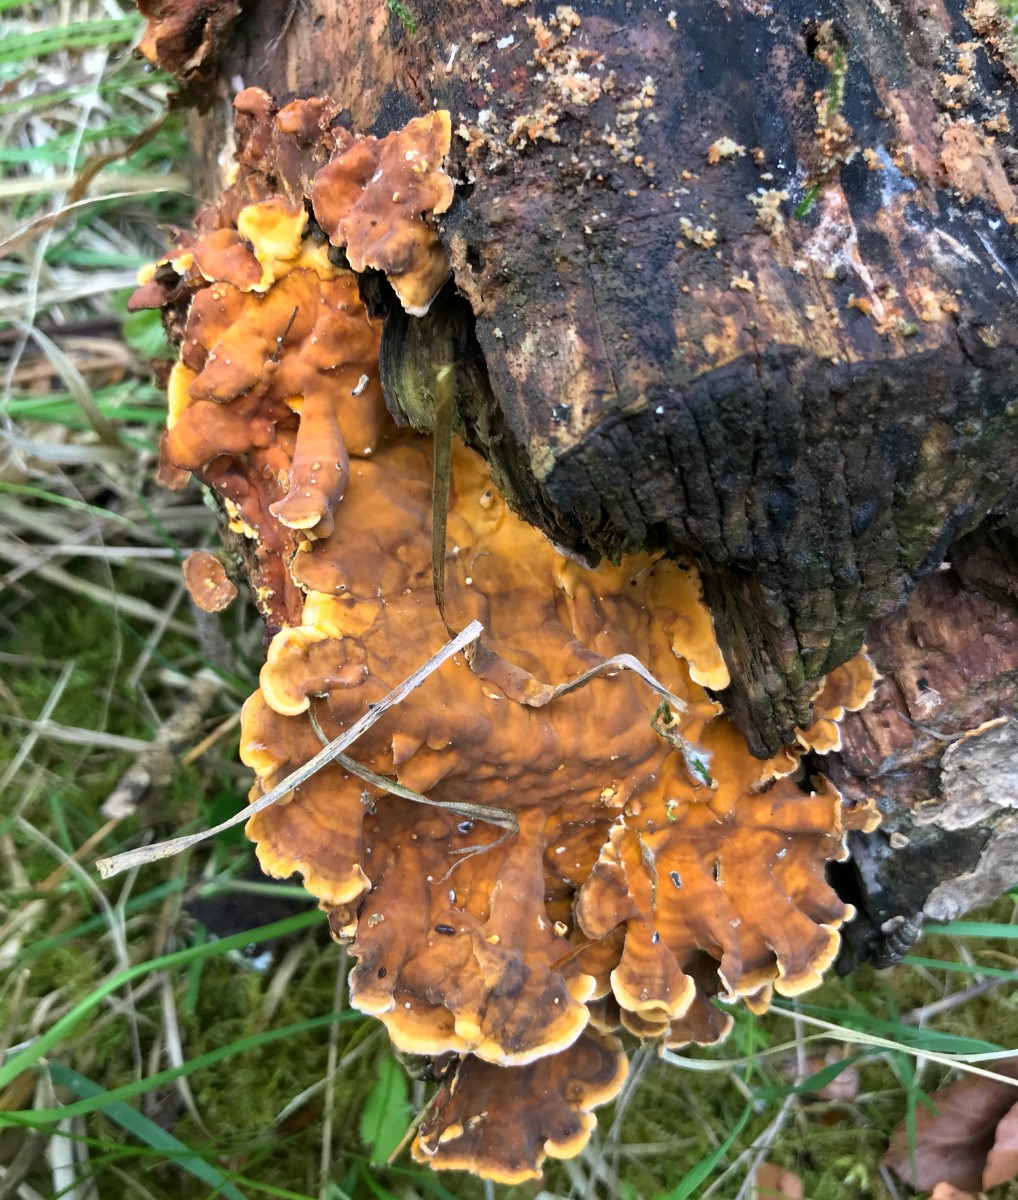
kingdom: Fungi
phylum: Basidiomycota
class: Agaricomycetes
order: Russulales
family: Stereaceae
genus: Stereum
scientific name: Stereum hirsutum
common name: håret lædersvamp
